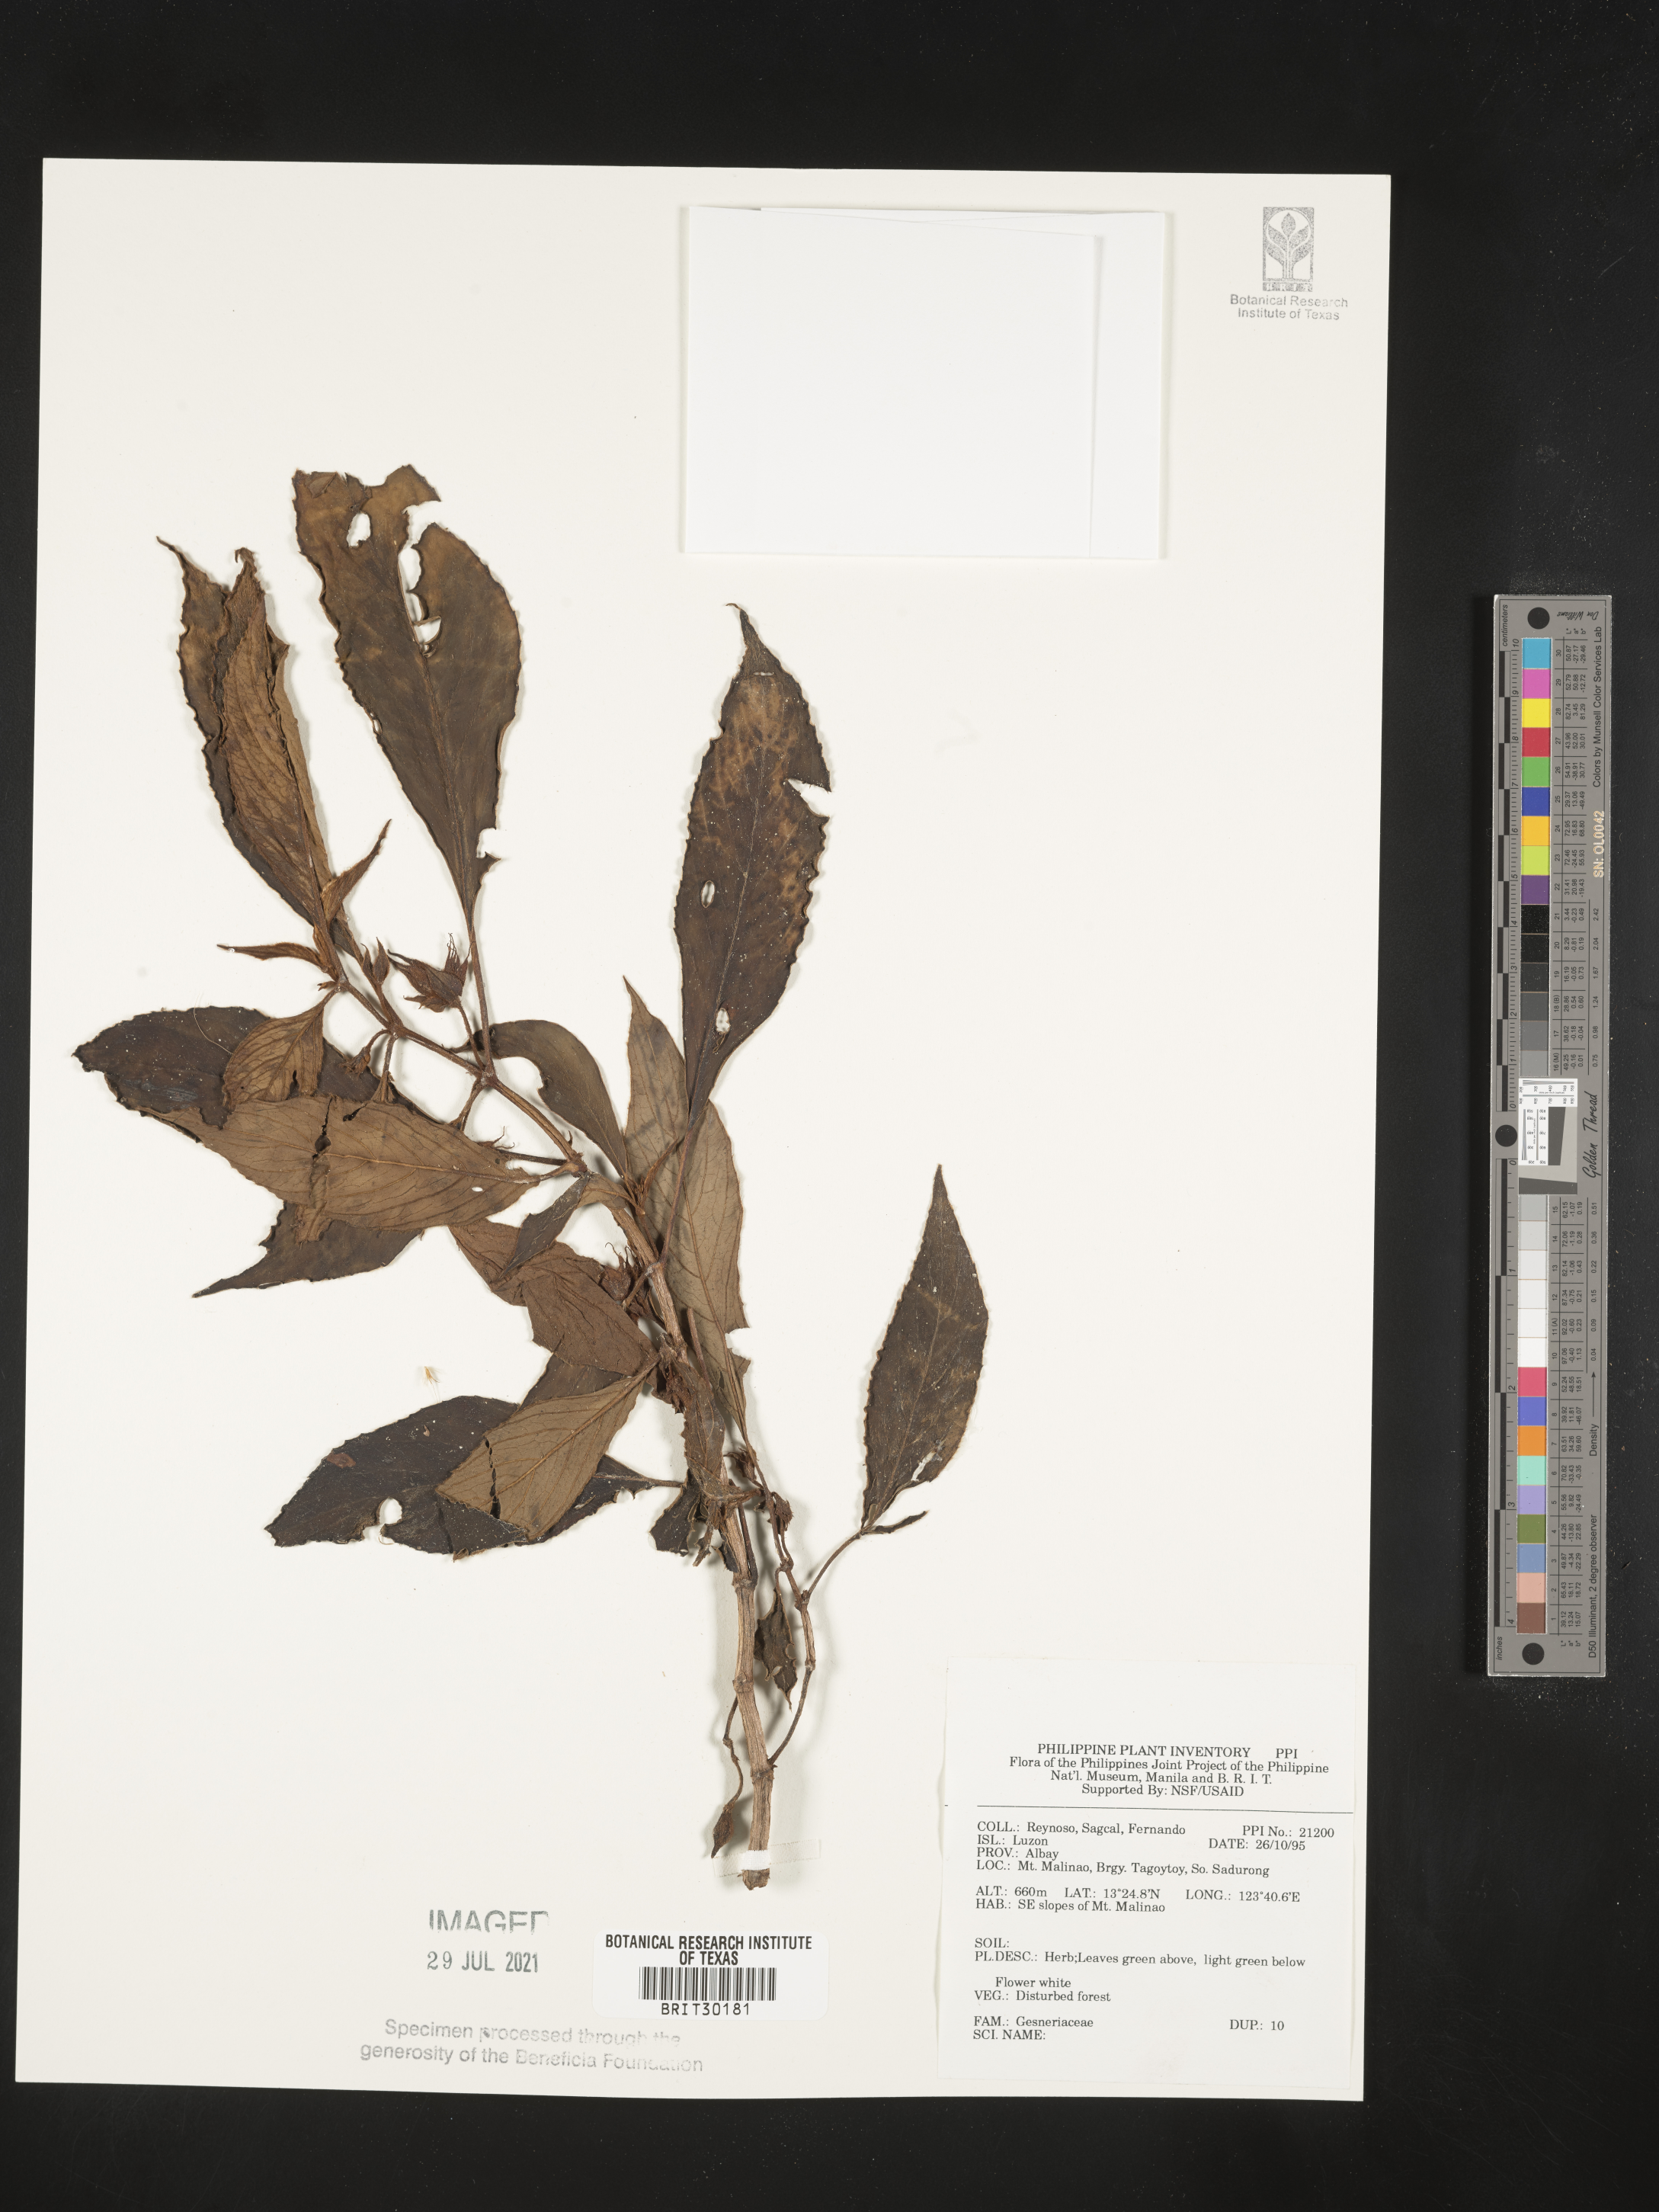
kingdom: Plantae
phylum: Tracheophyta
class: Magnoliopsida
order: Lamiales
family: Gesneriaceae
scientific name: Gesneriaceae
